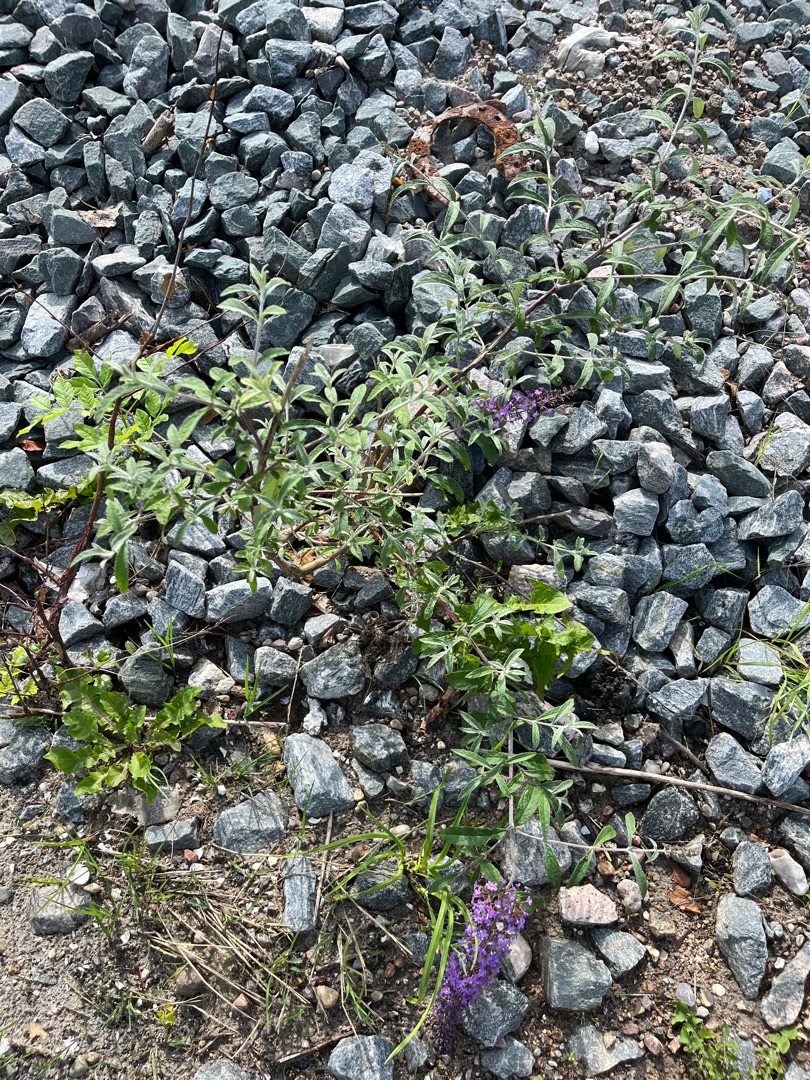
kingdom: Plantae
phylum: Tracheophyta
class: Magnoliopsida
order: Lamiales
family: Scrophulariaceae
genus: Buddleja
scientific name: Buddleja davidii
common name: Sommerfuglebusk
